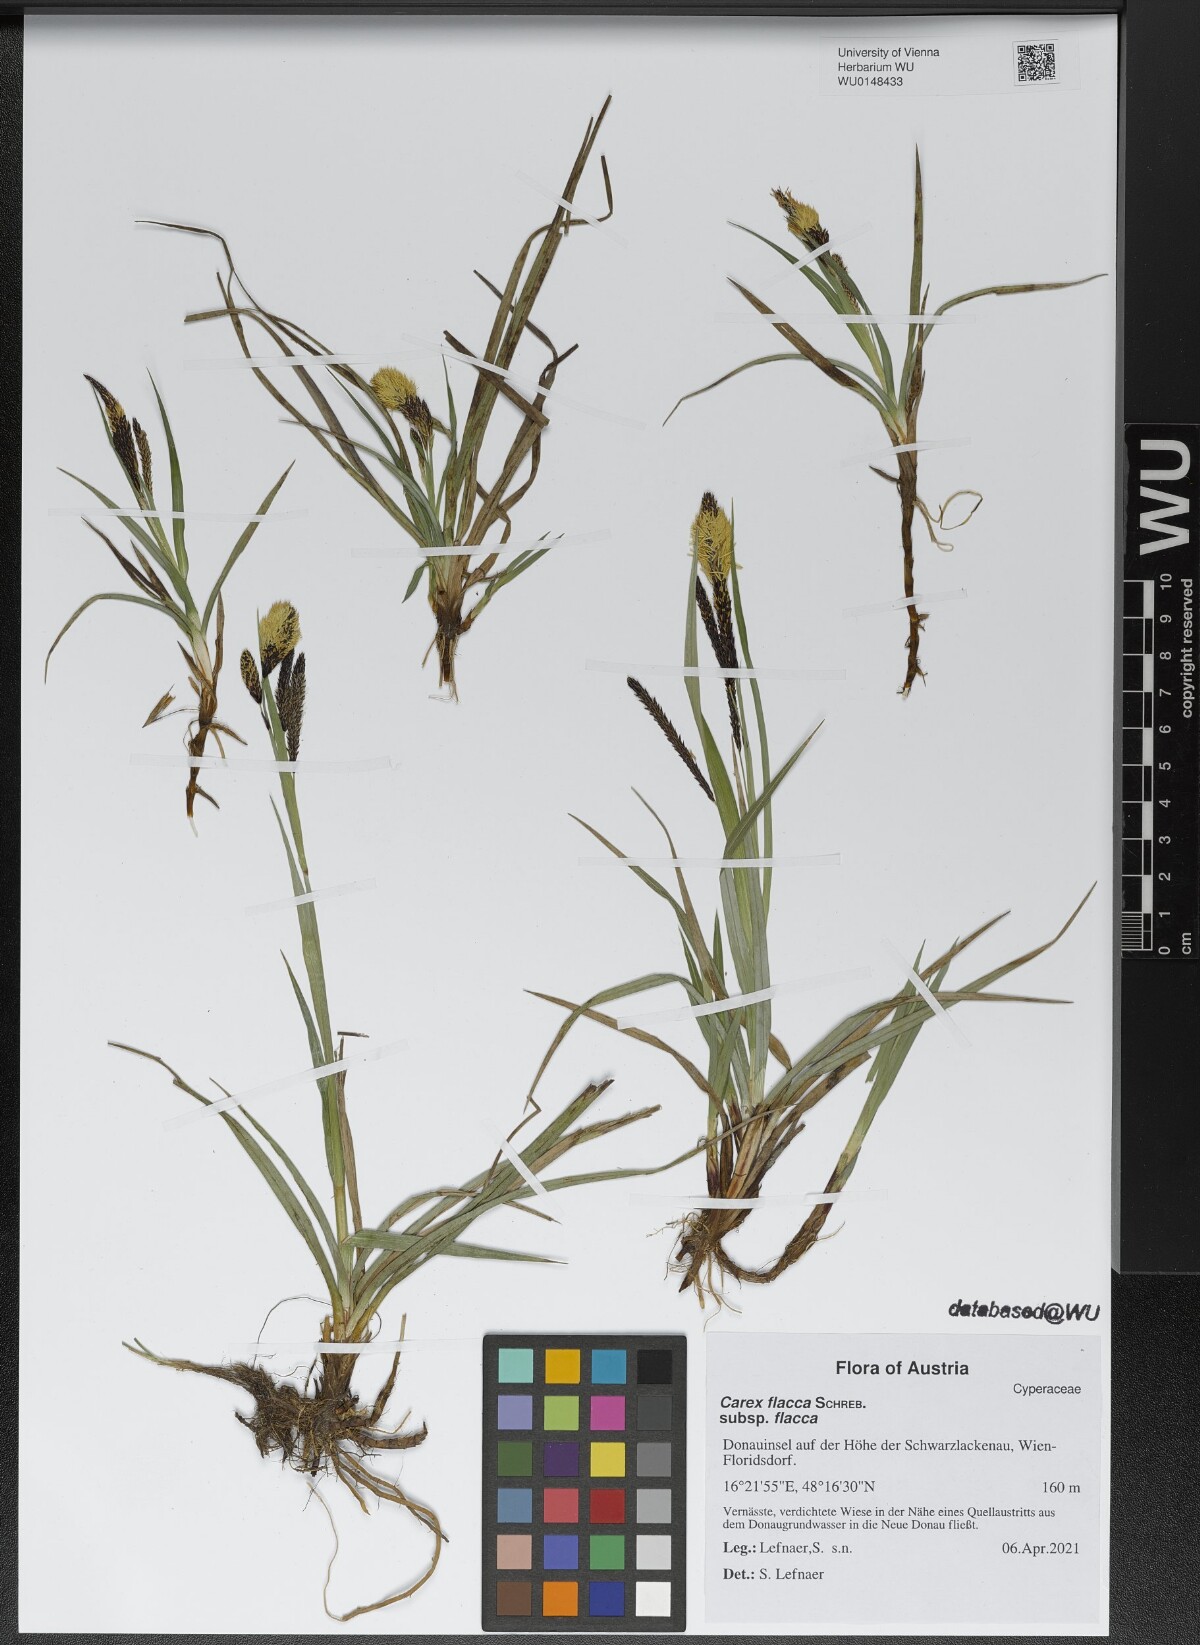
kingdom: Plantae
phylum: Tracheophyta
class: Liliopsida
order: Poales
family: Cyperaceae
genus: Carex
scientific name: Carex flacca
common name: Glaucous sedge
